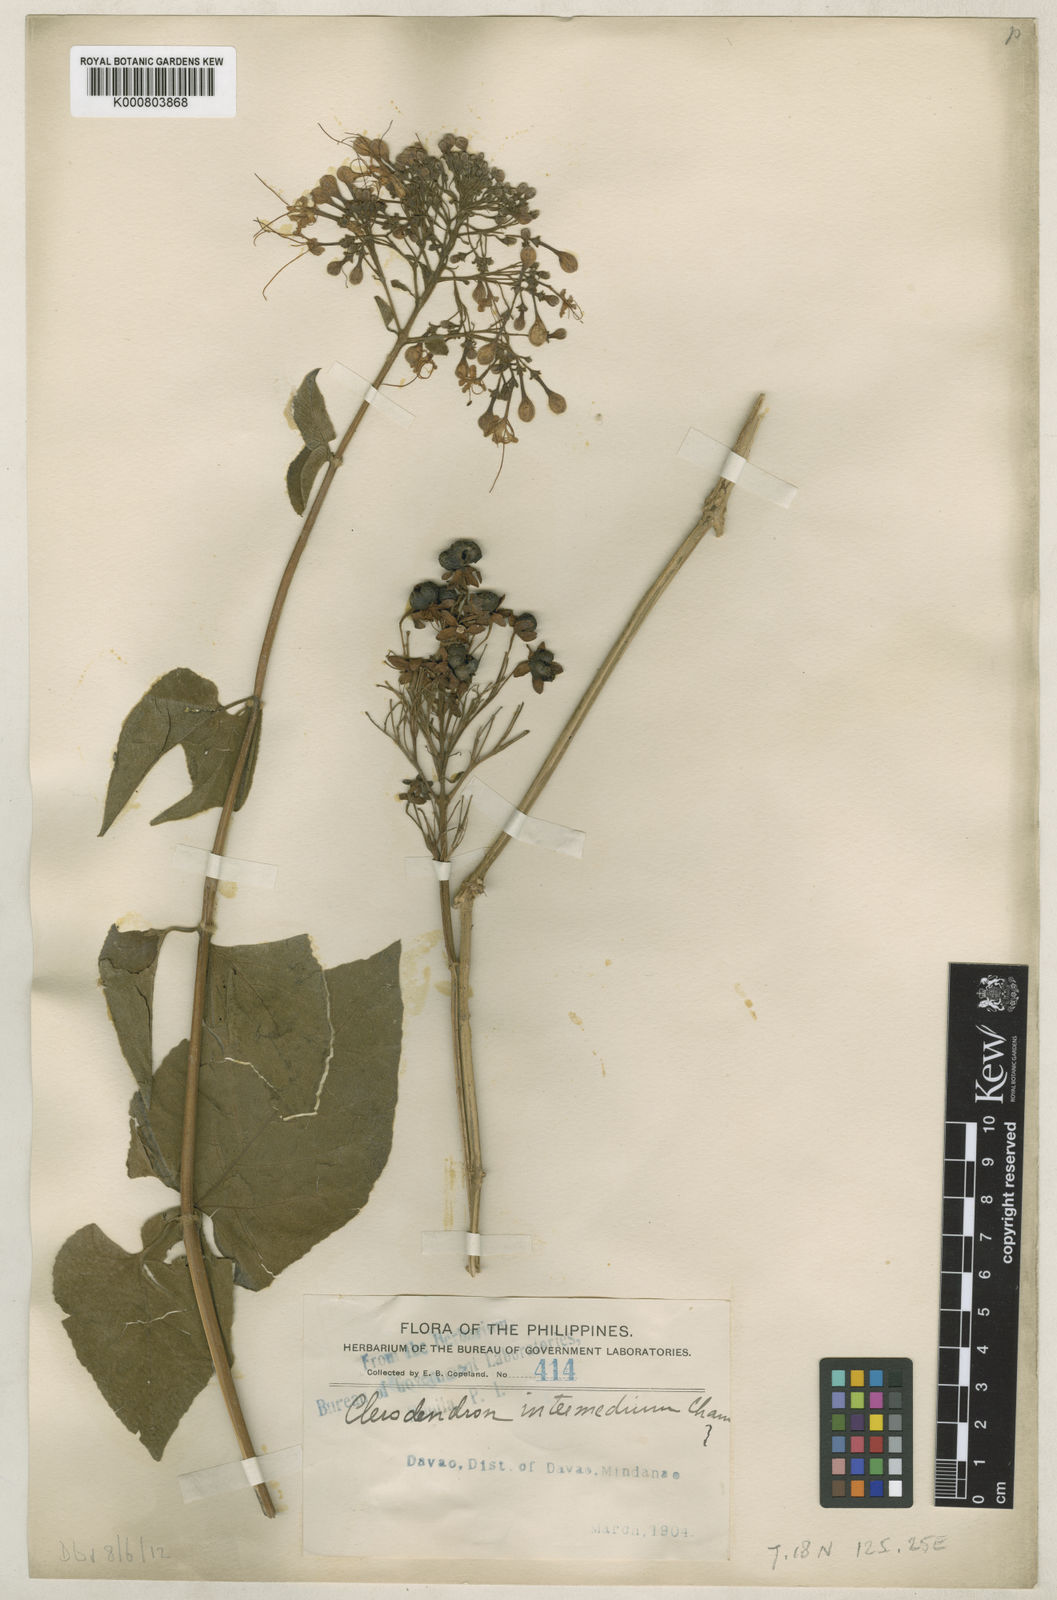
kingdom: Plantae
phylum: Tracheophyta
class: Magnoliopsida
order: Lamiales
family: Lamiaceae
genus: Clerodendrum
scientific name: Clerodendrum intermedium
